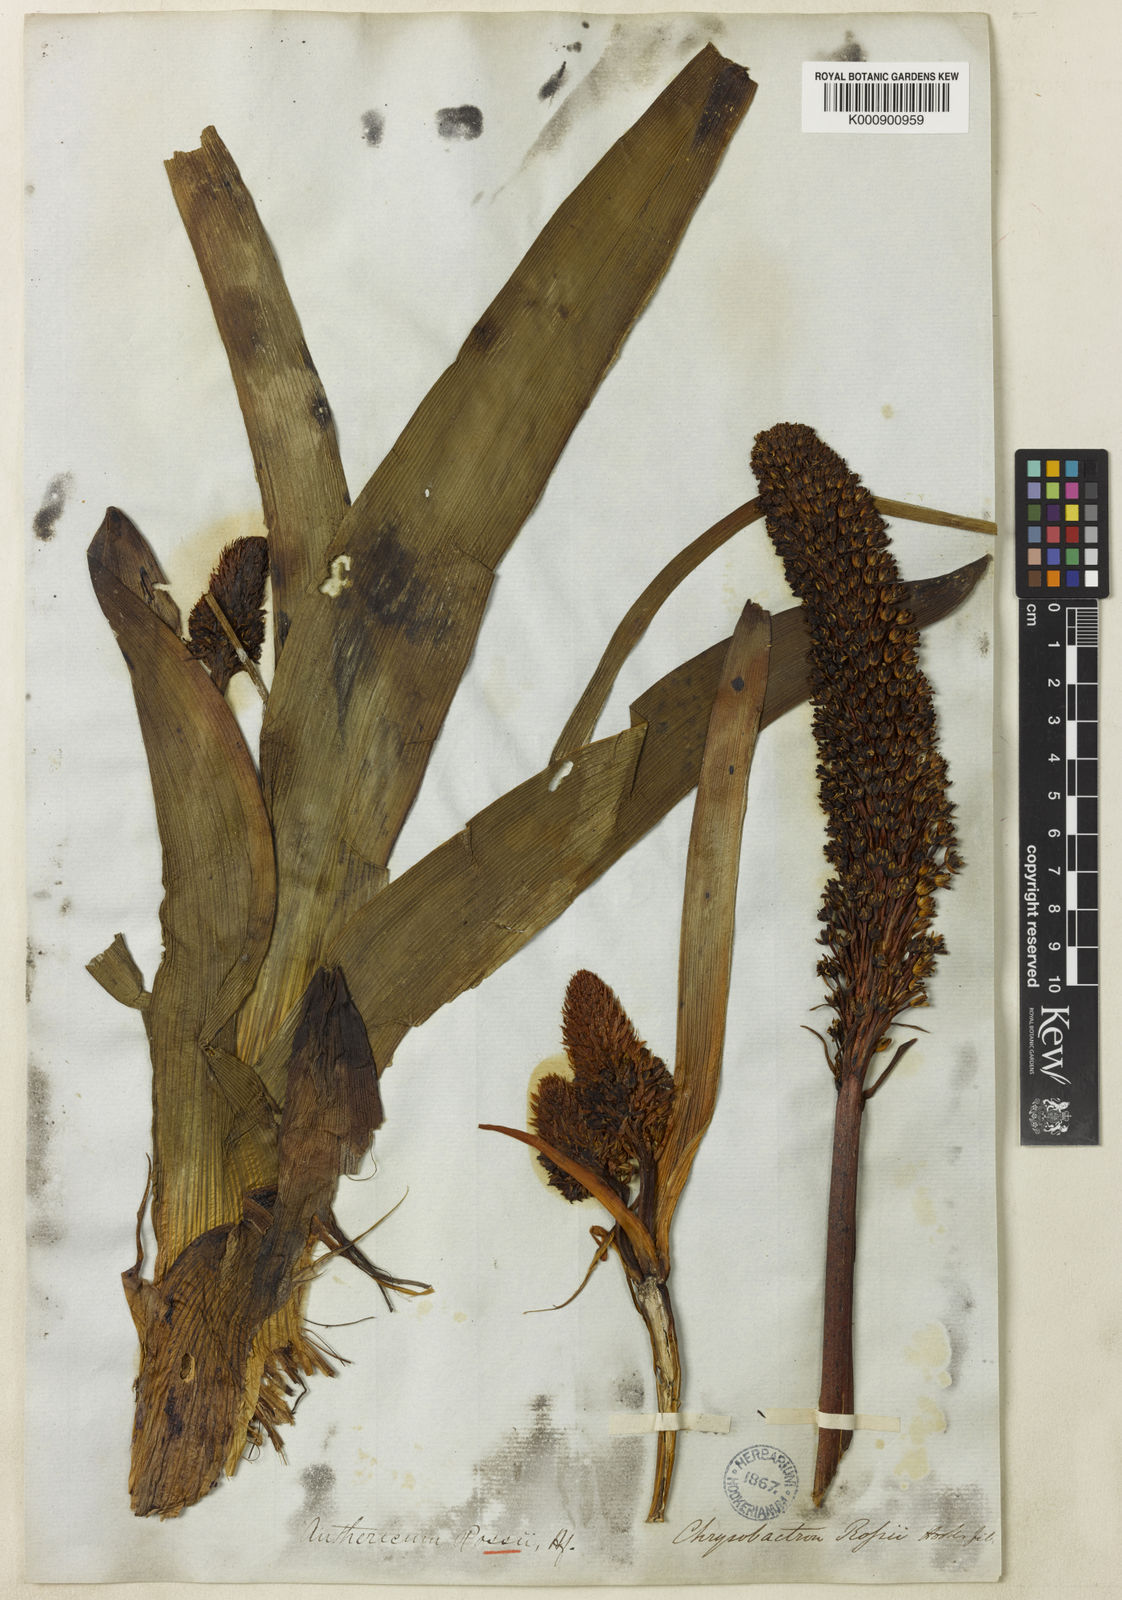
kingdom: Plantae
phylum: Tracheophyta
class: Liliopsida
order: Asparagales
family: Asphodelaceae
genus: Bulbinella
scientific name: Bulbinella
